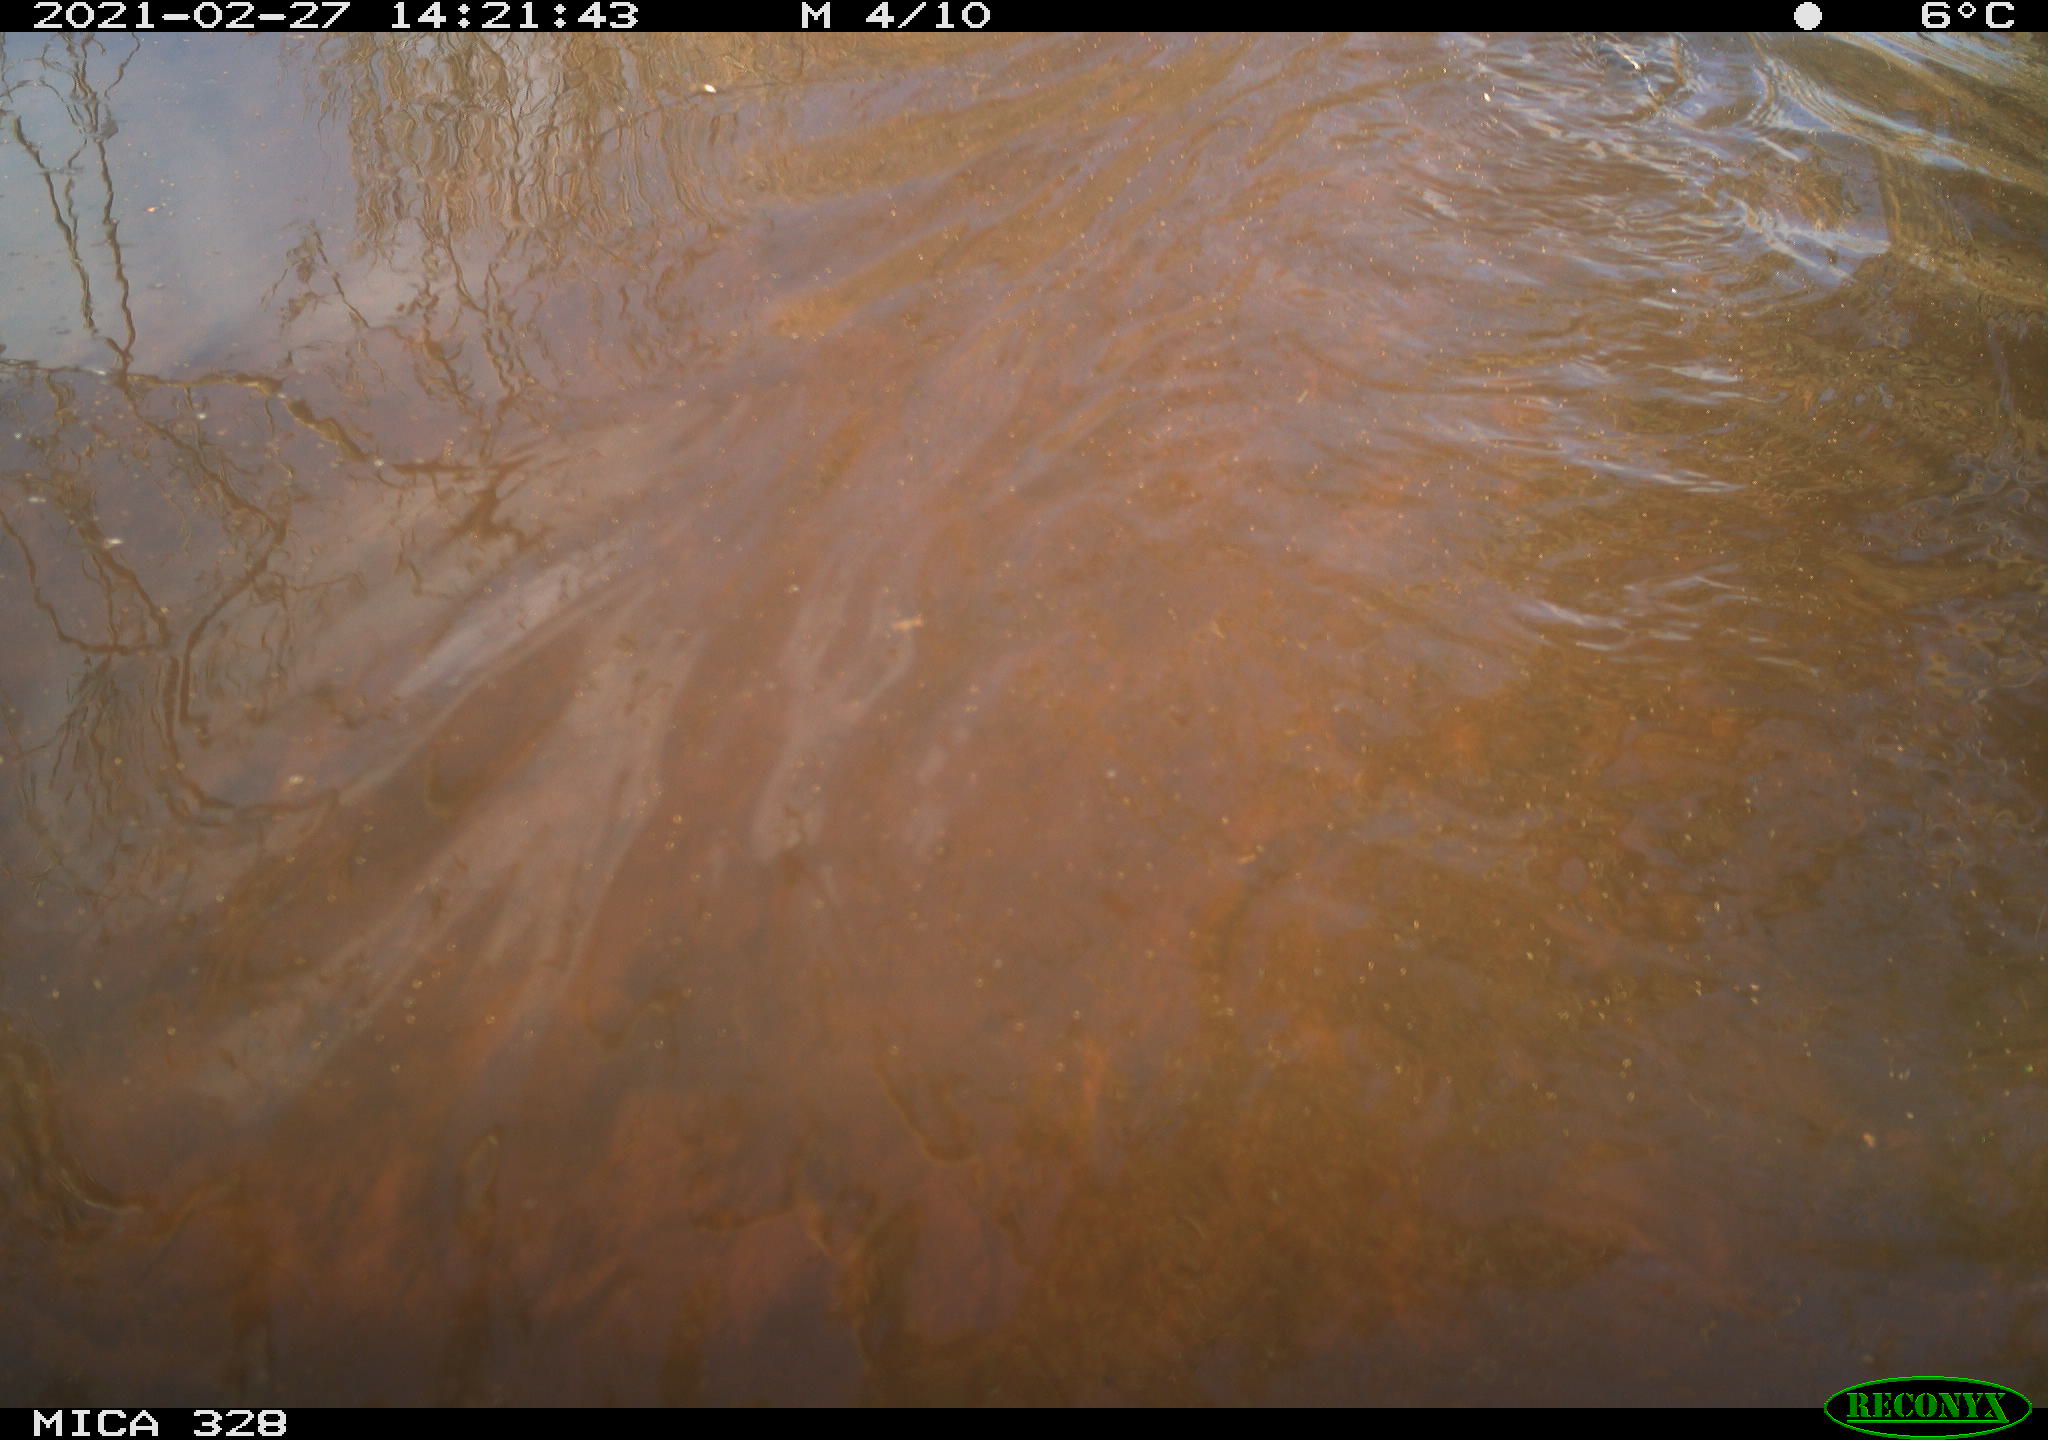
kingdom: Animalia
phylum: Chordata
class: Mammalia
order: Rodentia
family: Cricetidae
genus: Ondatra
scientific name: Ondatra zibethicus
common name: Muskrat
